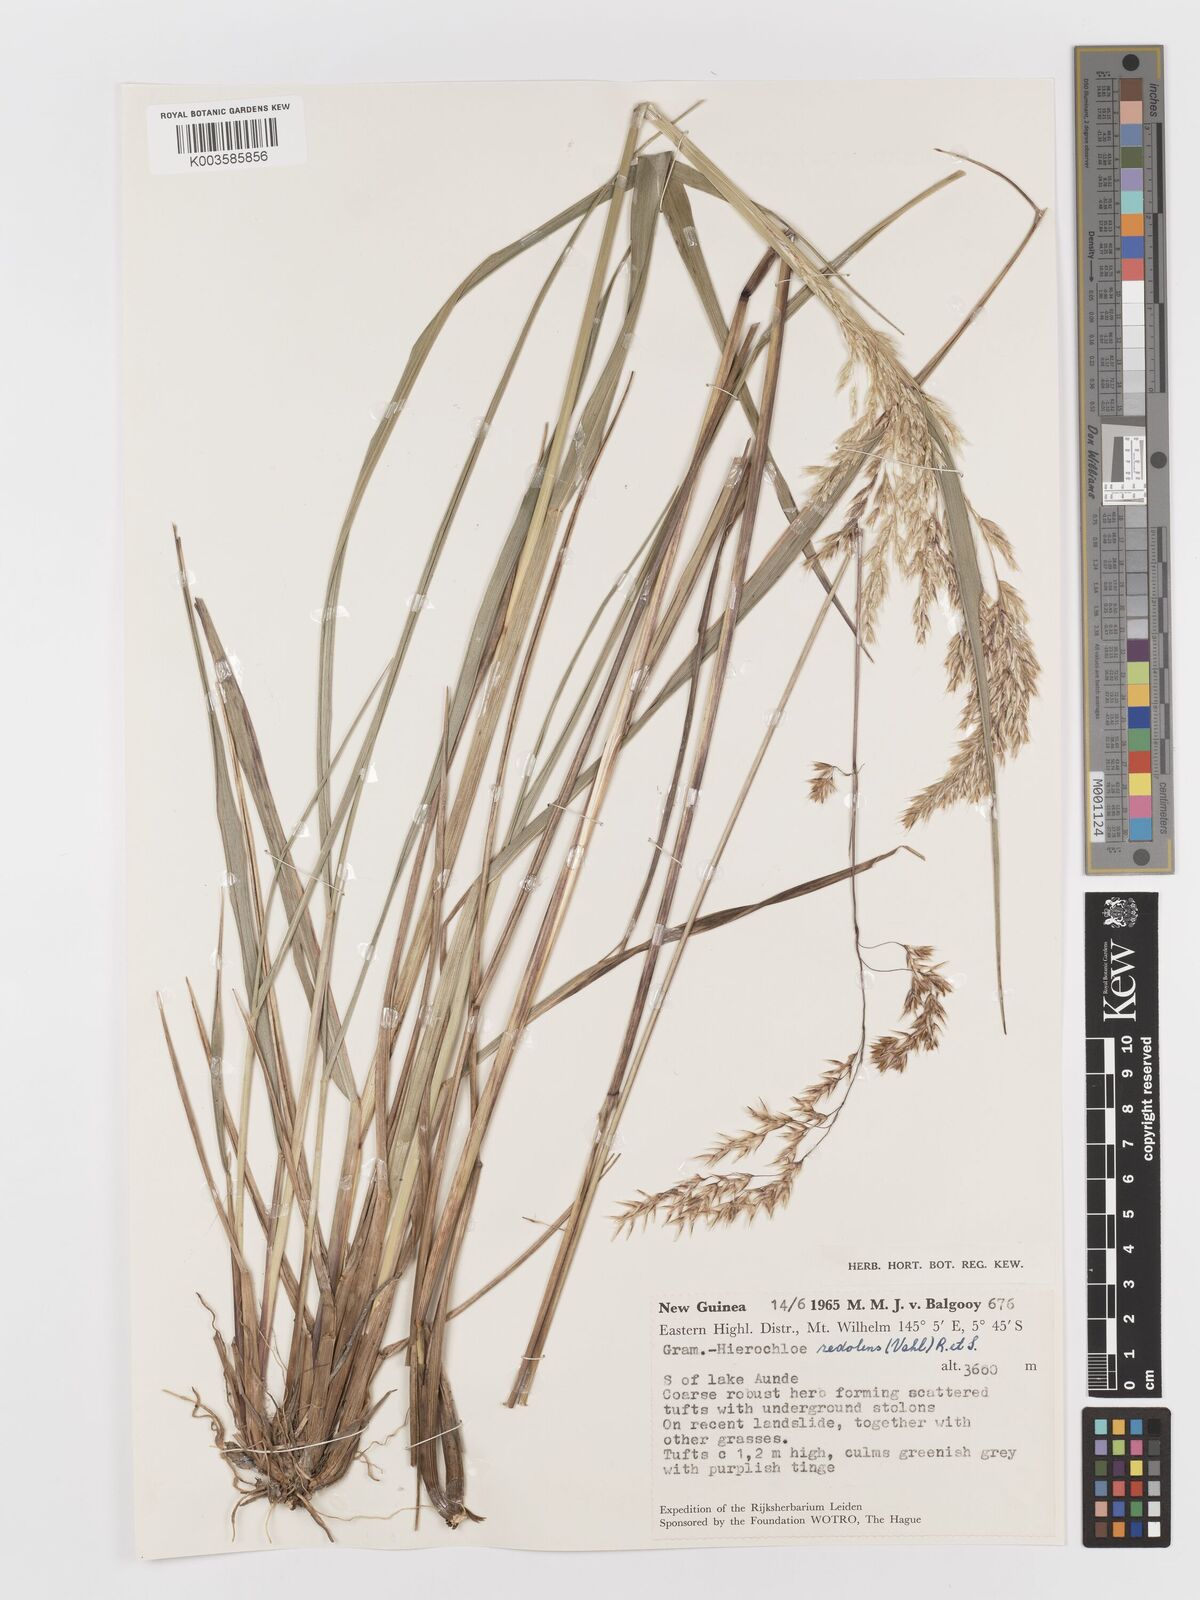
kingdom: Plantae
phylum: Tracheophyta
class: Liliopsida
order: Poales
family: Poaceae
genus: Anthoxanthum
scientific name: Anthoxanthum redolens
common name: Sweet holy grass
